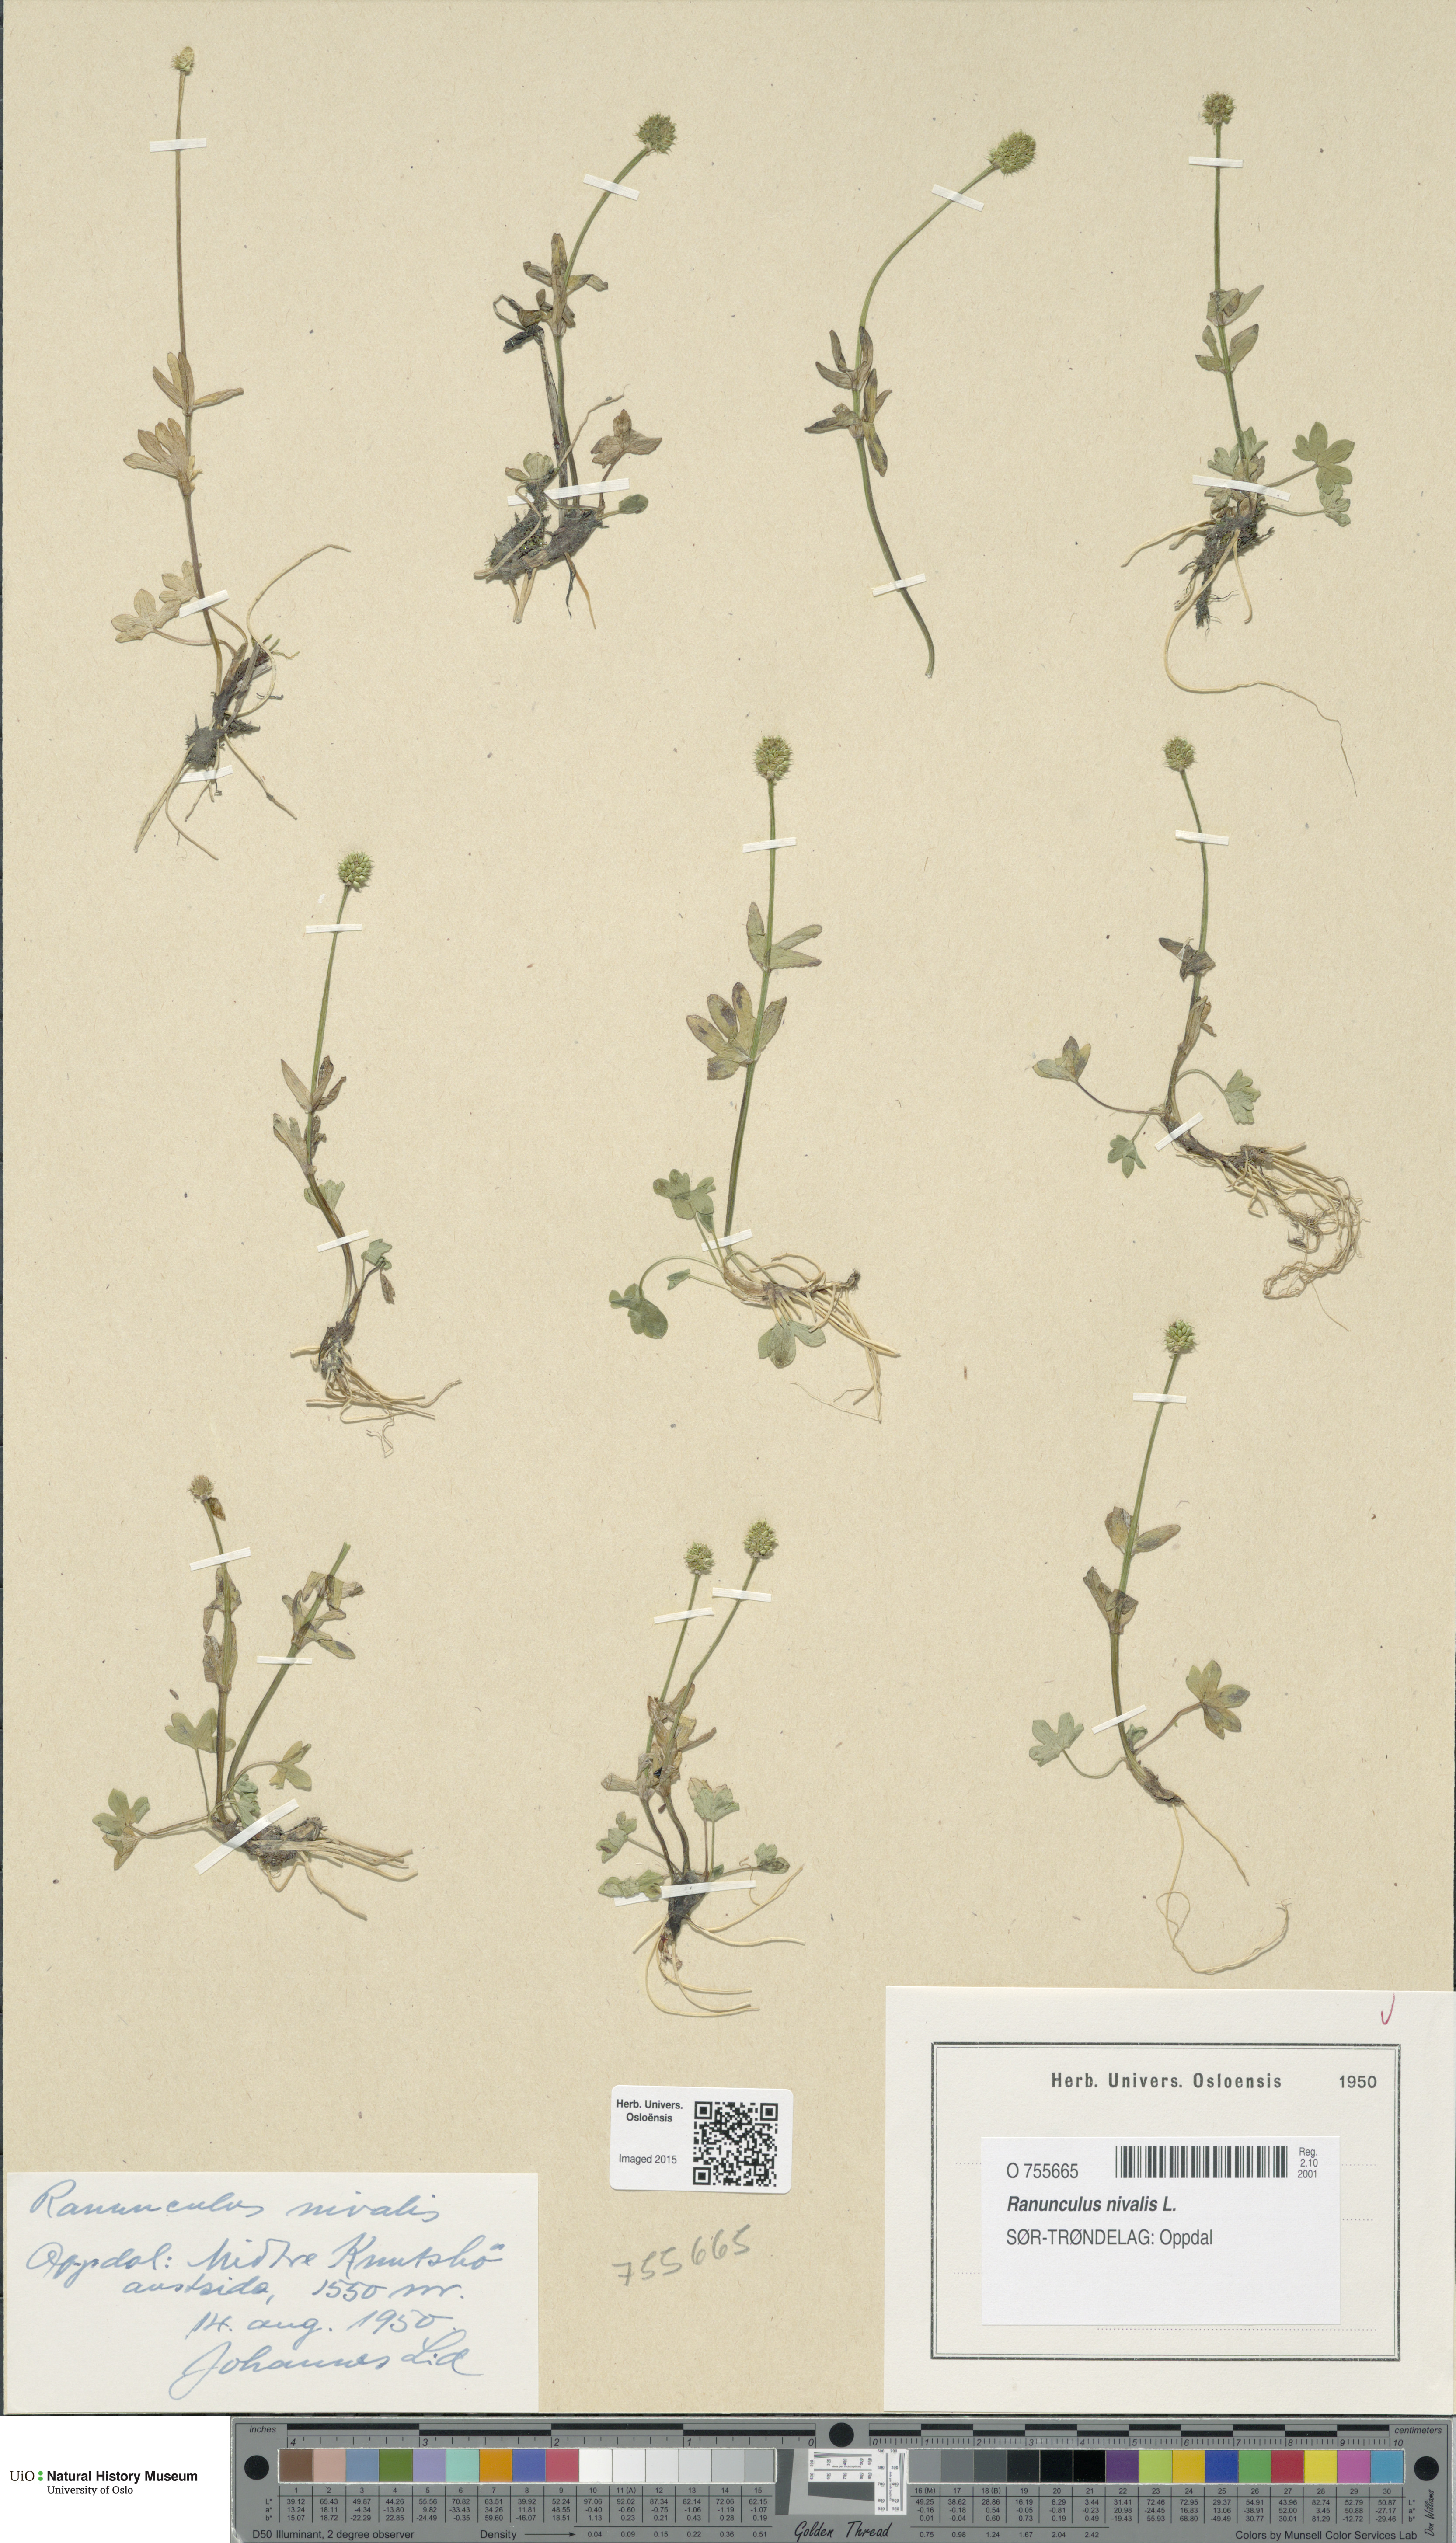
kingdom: Plantae
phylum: Tracheophyta
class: Magnoliopsida
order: Ranunculales
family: Ranunculaceae
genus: Ranunculus
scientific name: Ranunculus nivalis
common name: Snow buttercup
